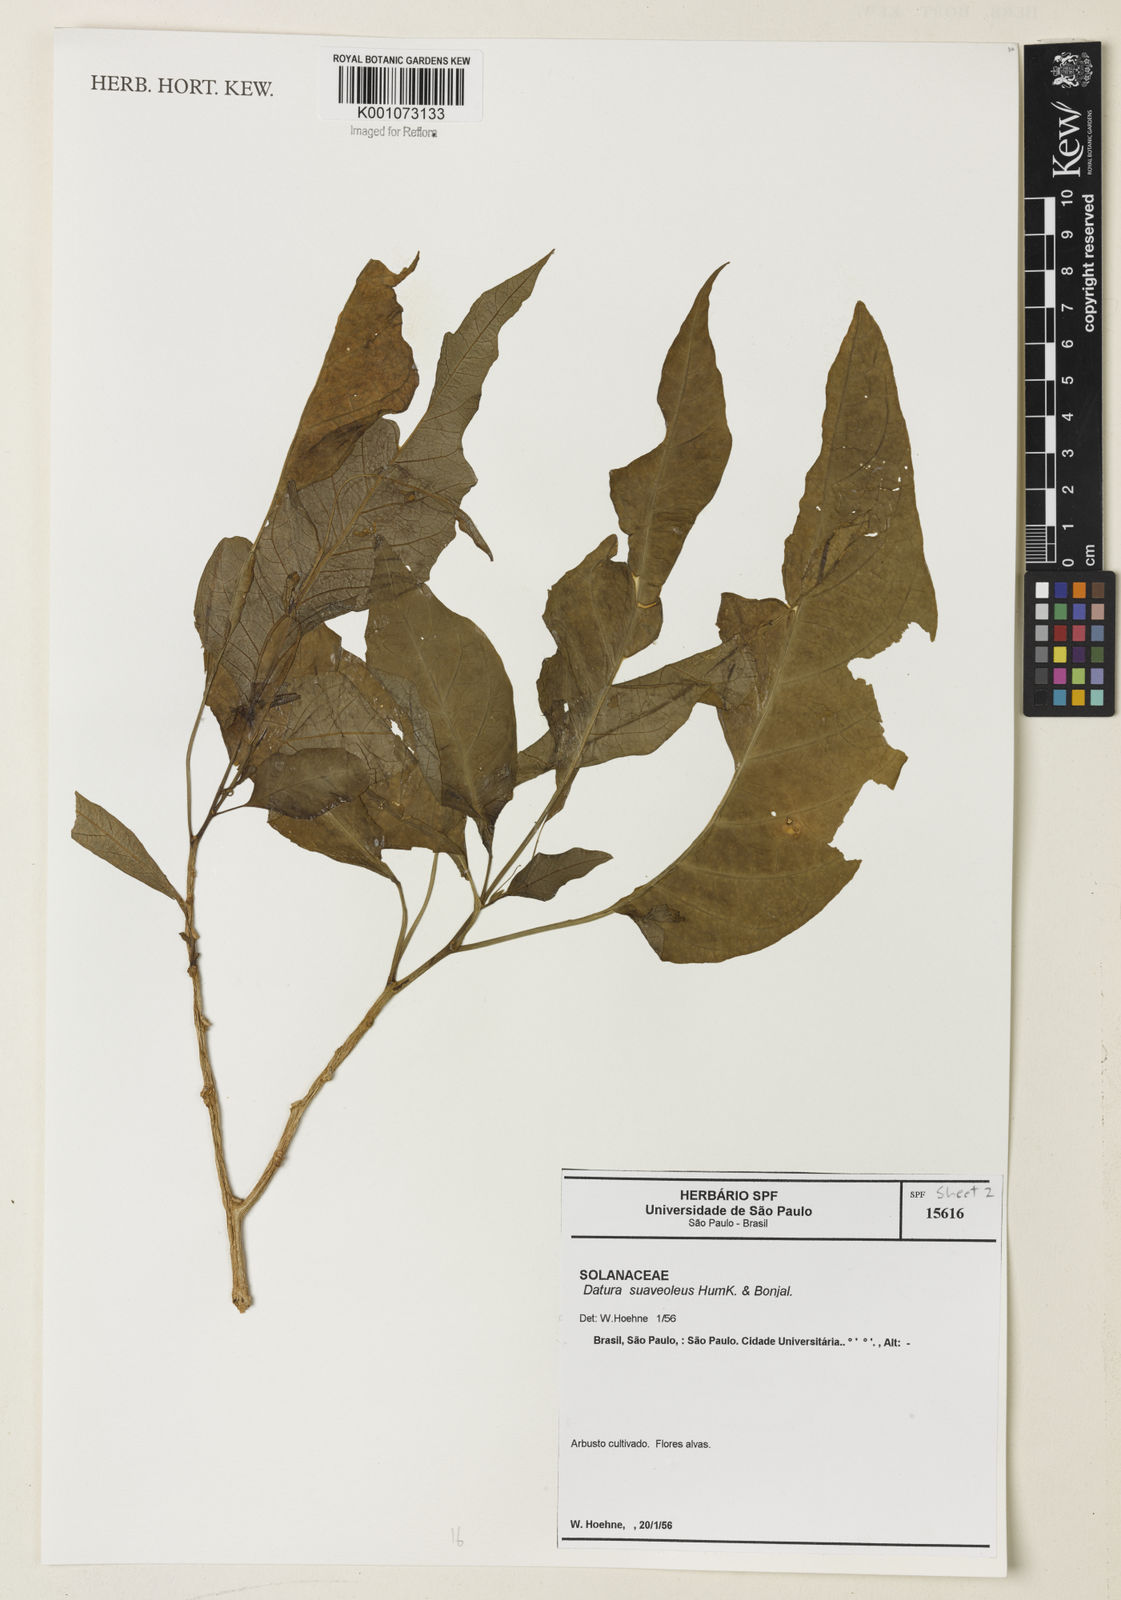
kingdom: Plantae
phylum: Tracheophyta
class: Magnoliopsida
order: Solanales
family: Solanaceae
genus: Brugmansia
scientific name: Brugmansia suaveolens
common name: Angel's tears
